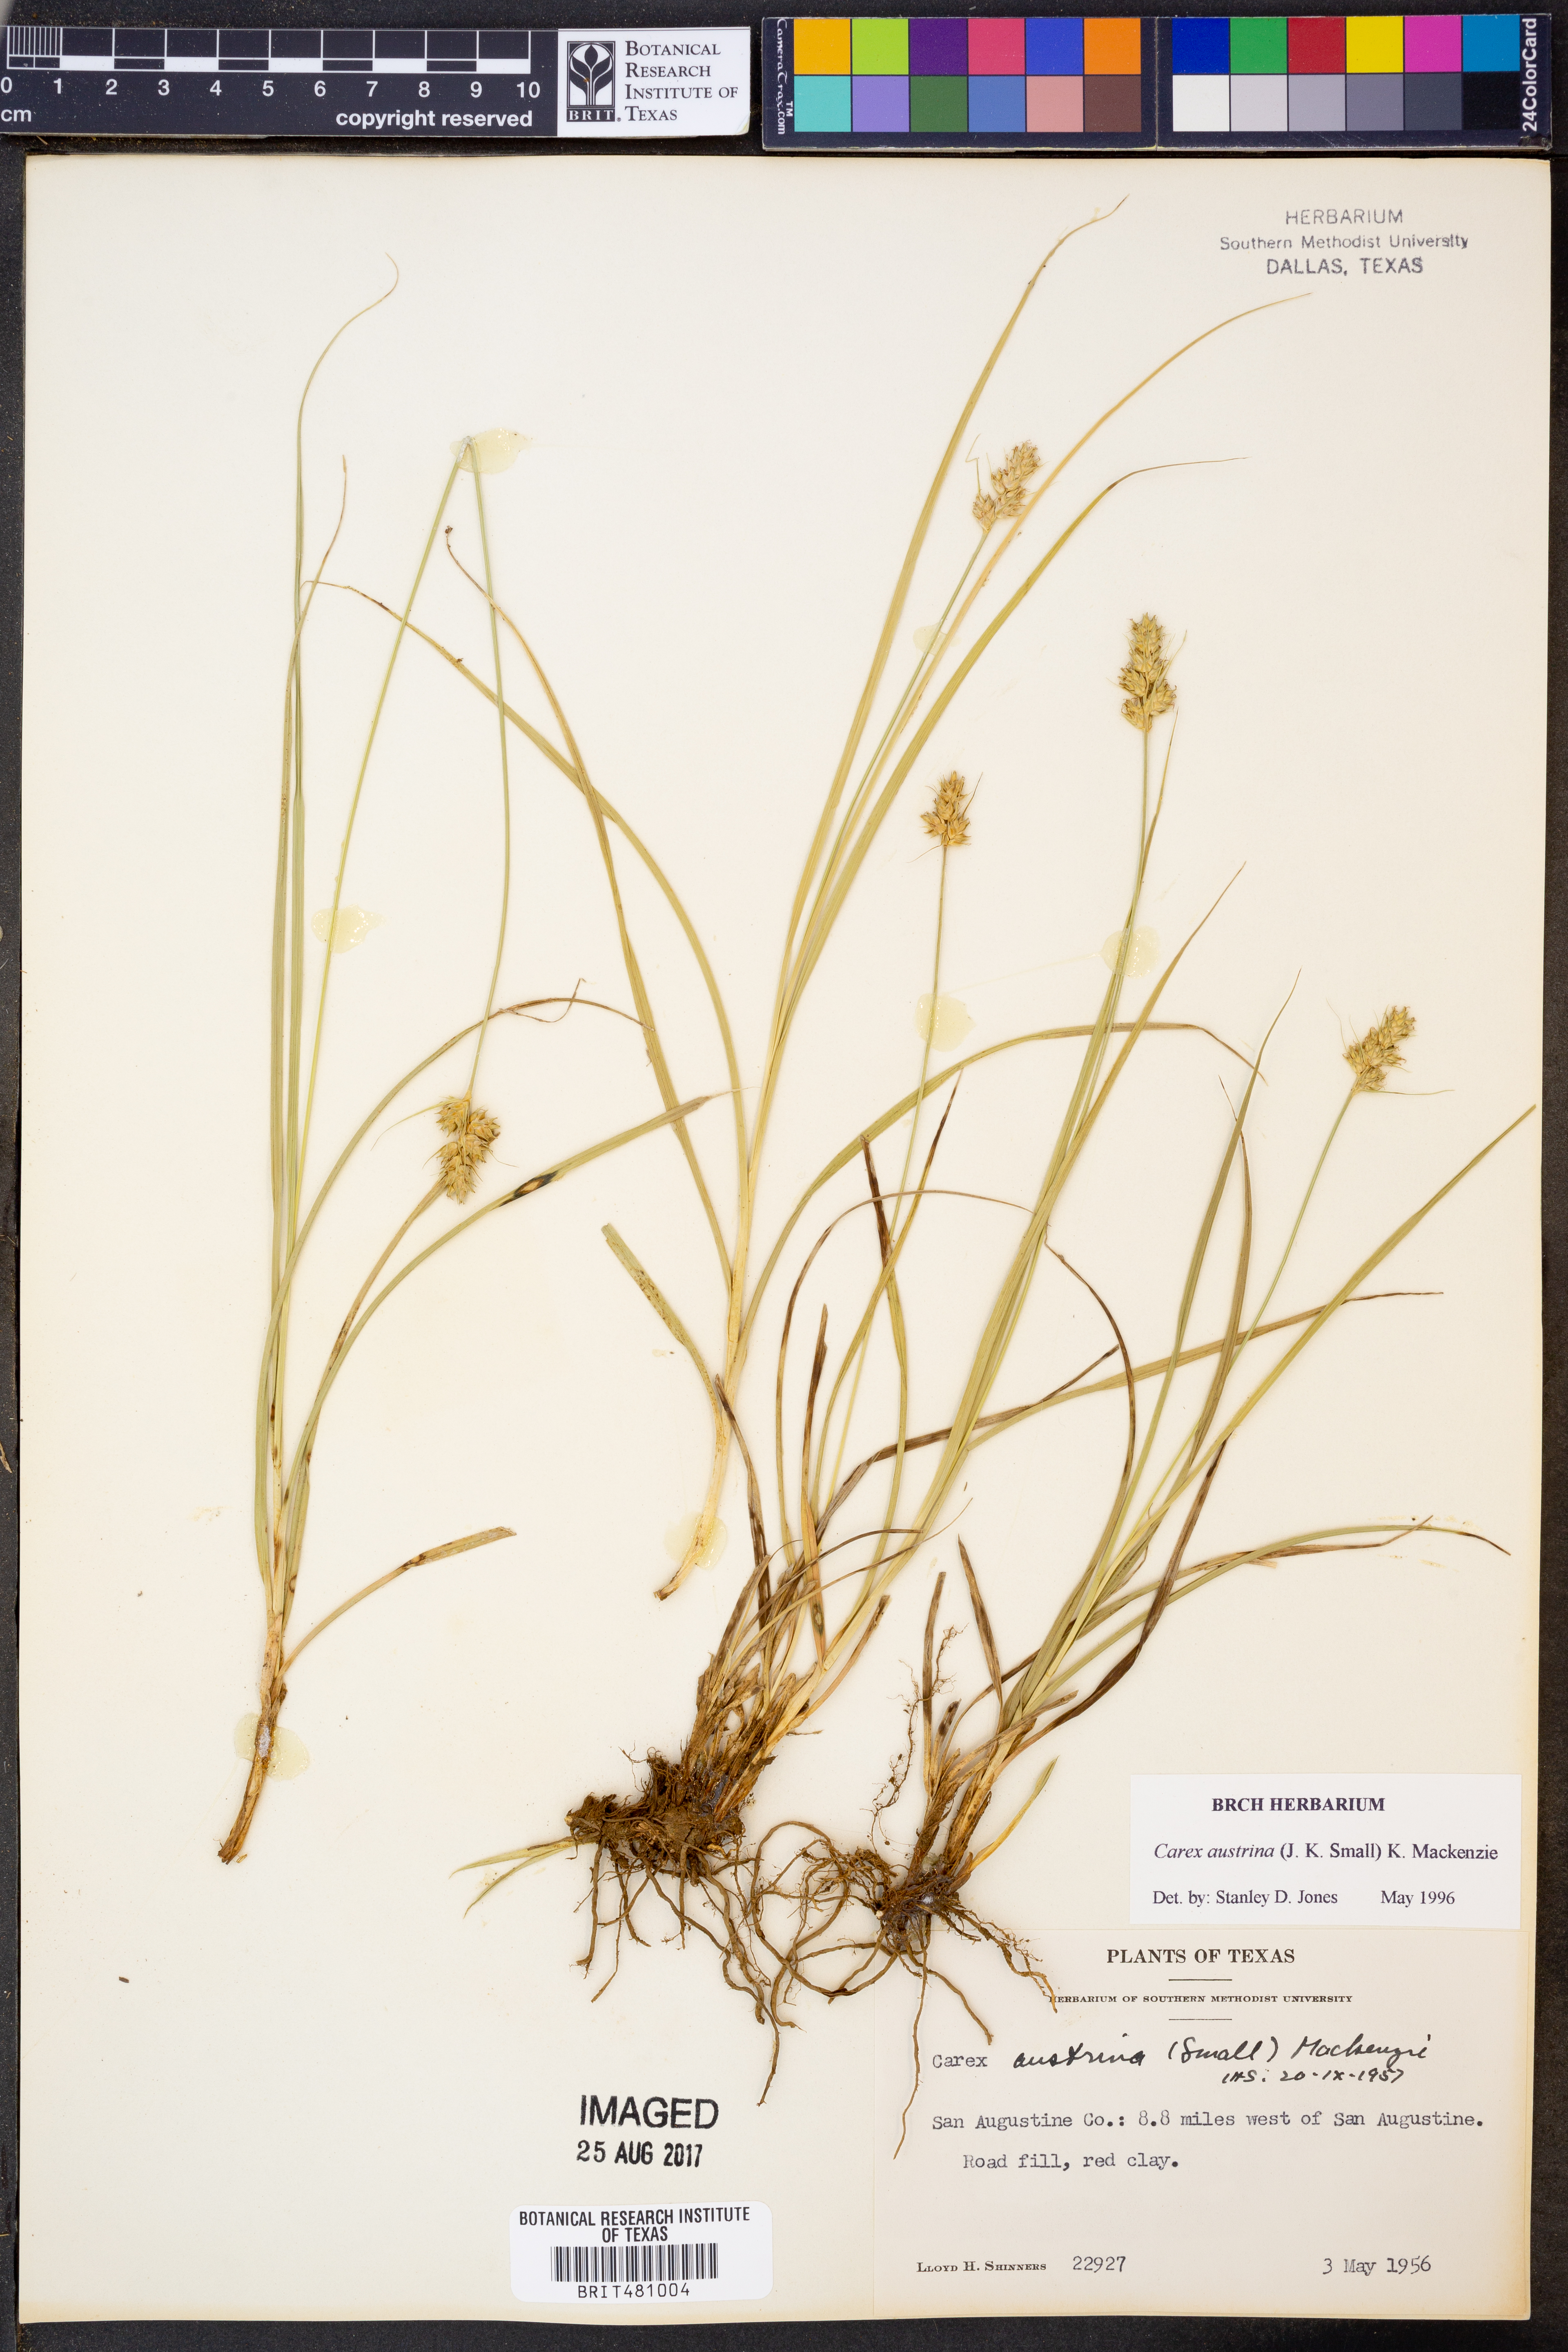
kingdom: Plantae
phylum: Tracheophyta
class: Liliopsida
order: Poales
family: Cyperaceae
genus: Carex
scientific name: Carex austrina
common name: Southern sedge
